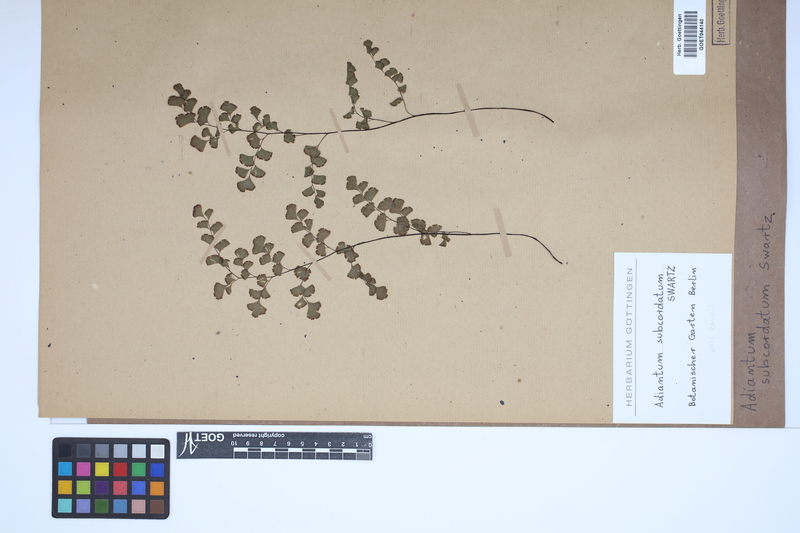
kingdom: Plantae
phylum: Tracheophyta
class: Polypodiopsida
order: Polypodiales
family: Pteridaceae
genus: Adiantum
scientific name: Adiantum subcordatum
